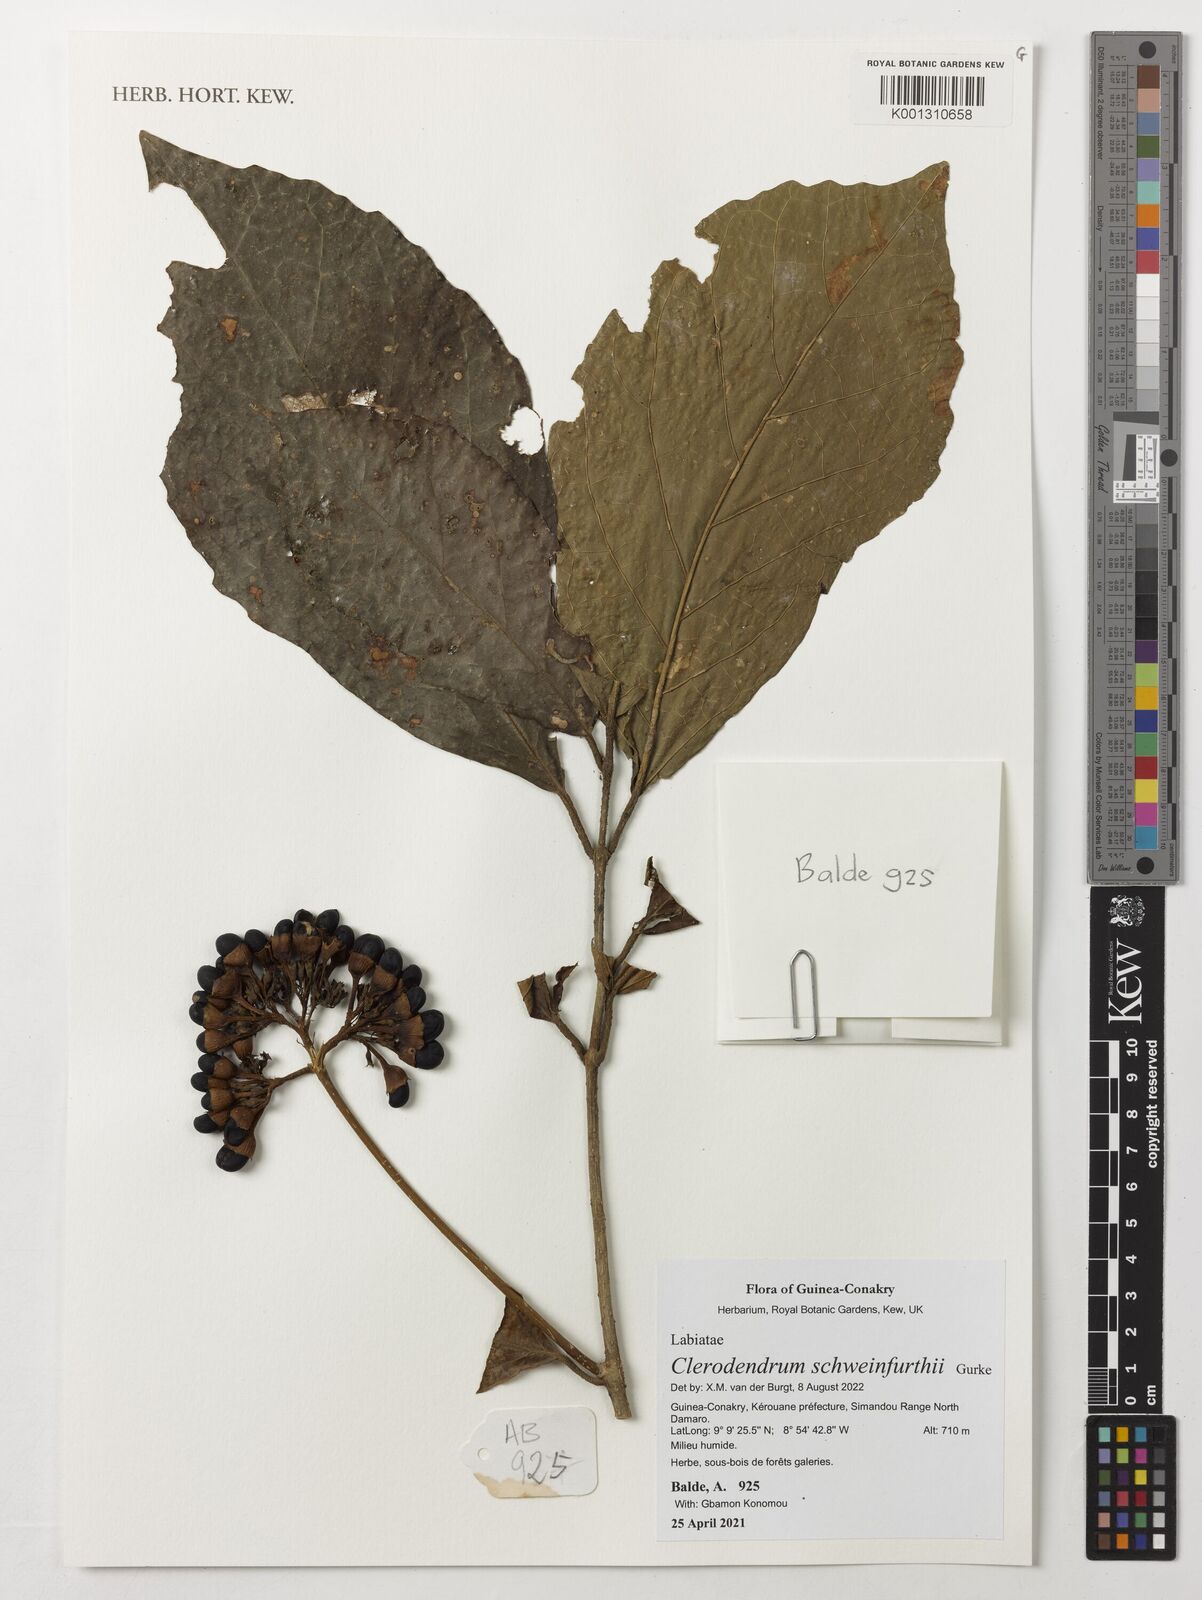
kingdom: Plantae
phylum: Tracheophyta
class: Magnoliopsida
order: Lamiales
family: Lamiaceae
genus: Clerodendrum
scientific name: Clerodendrum schweinfurthii
